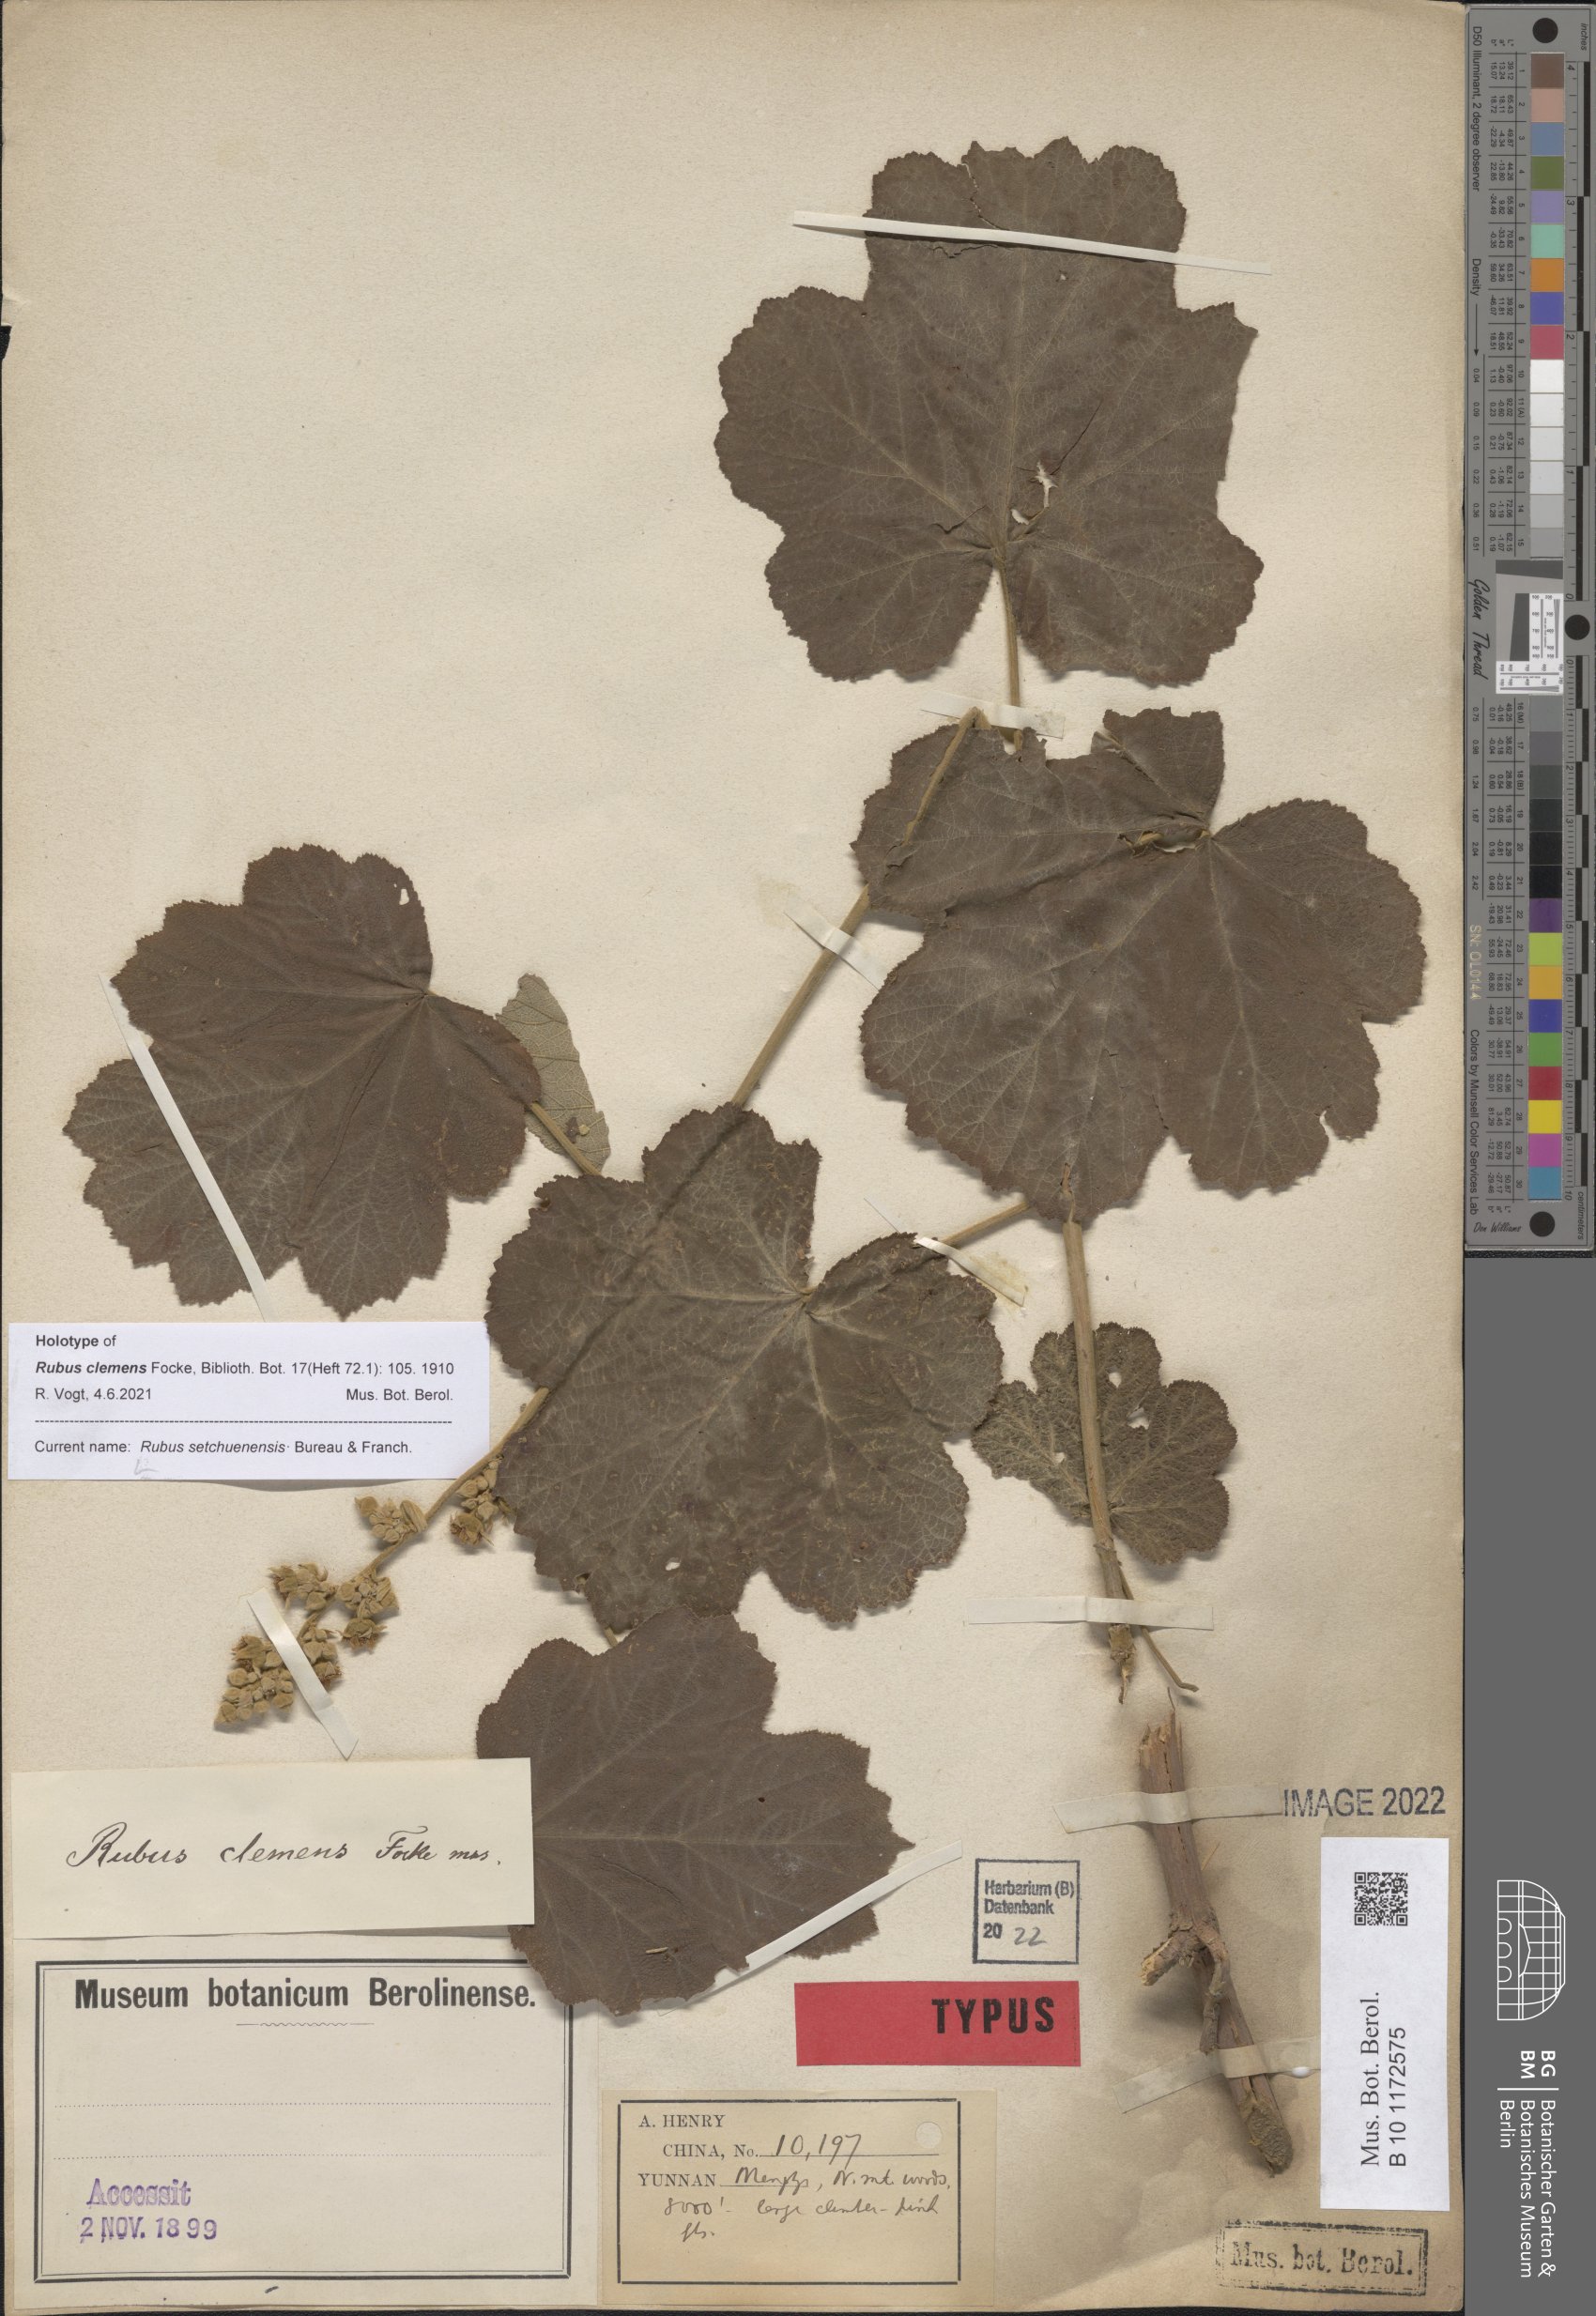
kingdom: Plantae
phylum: Tracheophyta
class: Magnoliopsida
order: Rosales
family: Rosaceae
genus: Rubus
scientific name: Rubus setchuenensis
